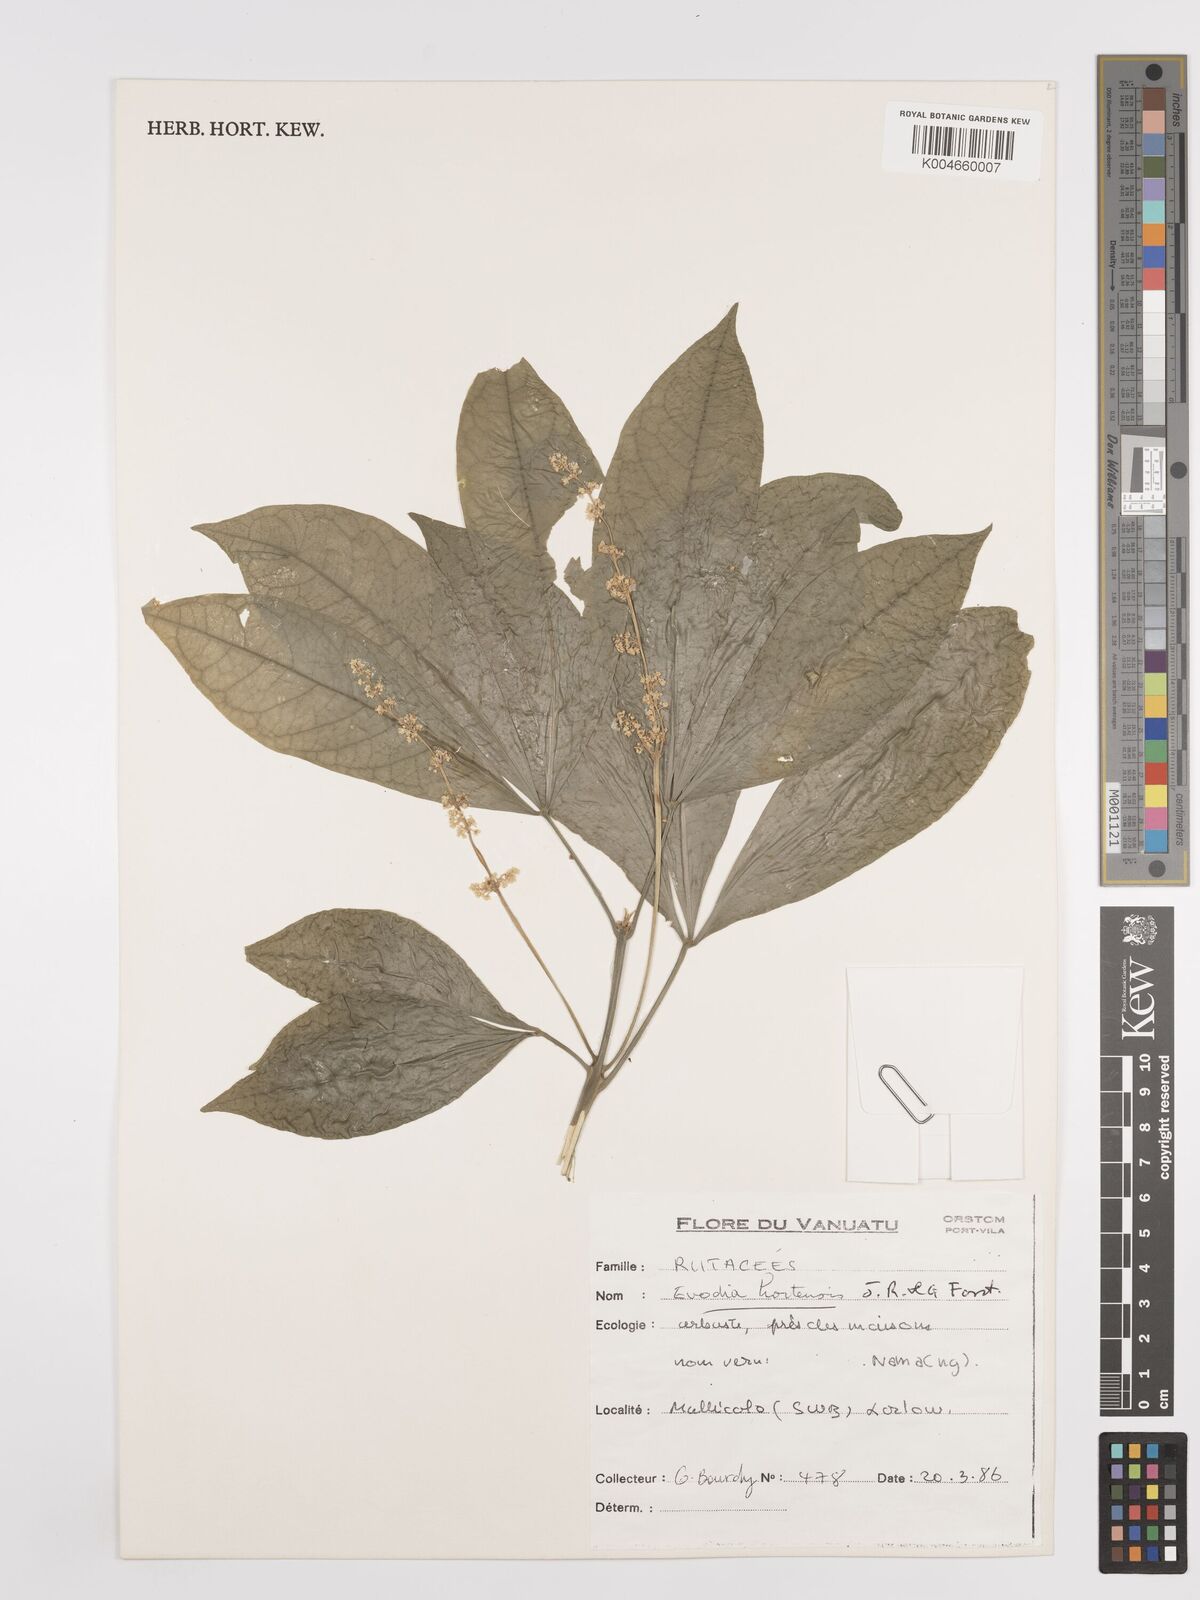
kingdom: Plantae
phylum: Tracheophyta
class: Magnoliopsida
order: Sapindales
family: Rutaceae
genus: Euodia
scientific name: Euodia hortensis
